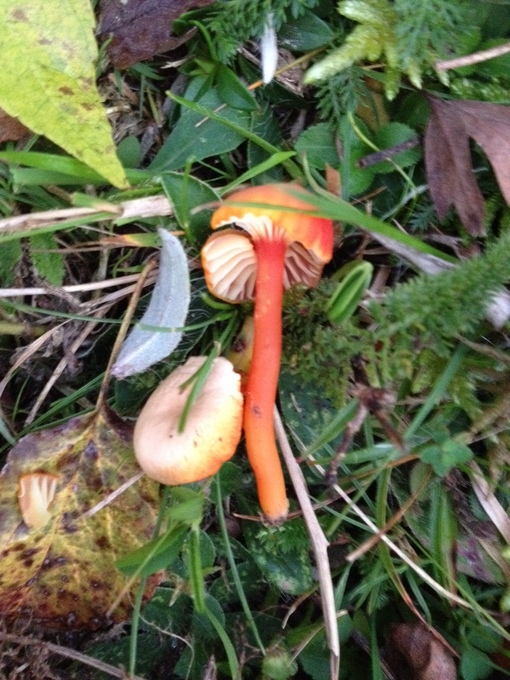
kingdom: Fungi
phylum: Basidiomycota
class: Agaricomycetes
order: Agaricales
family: Hygrophoraceae
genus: Hygrocybe
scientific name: Hygrocybe cantharellus
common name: kantarel-vokshat
